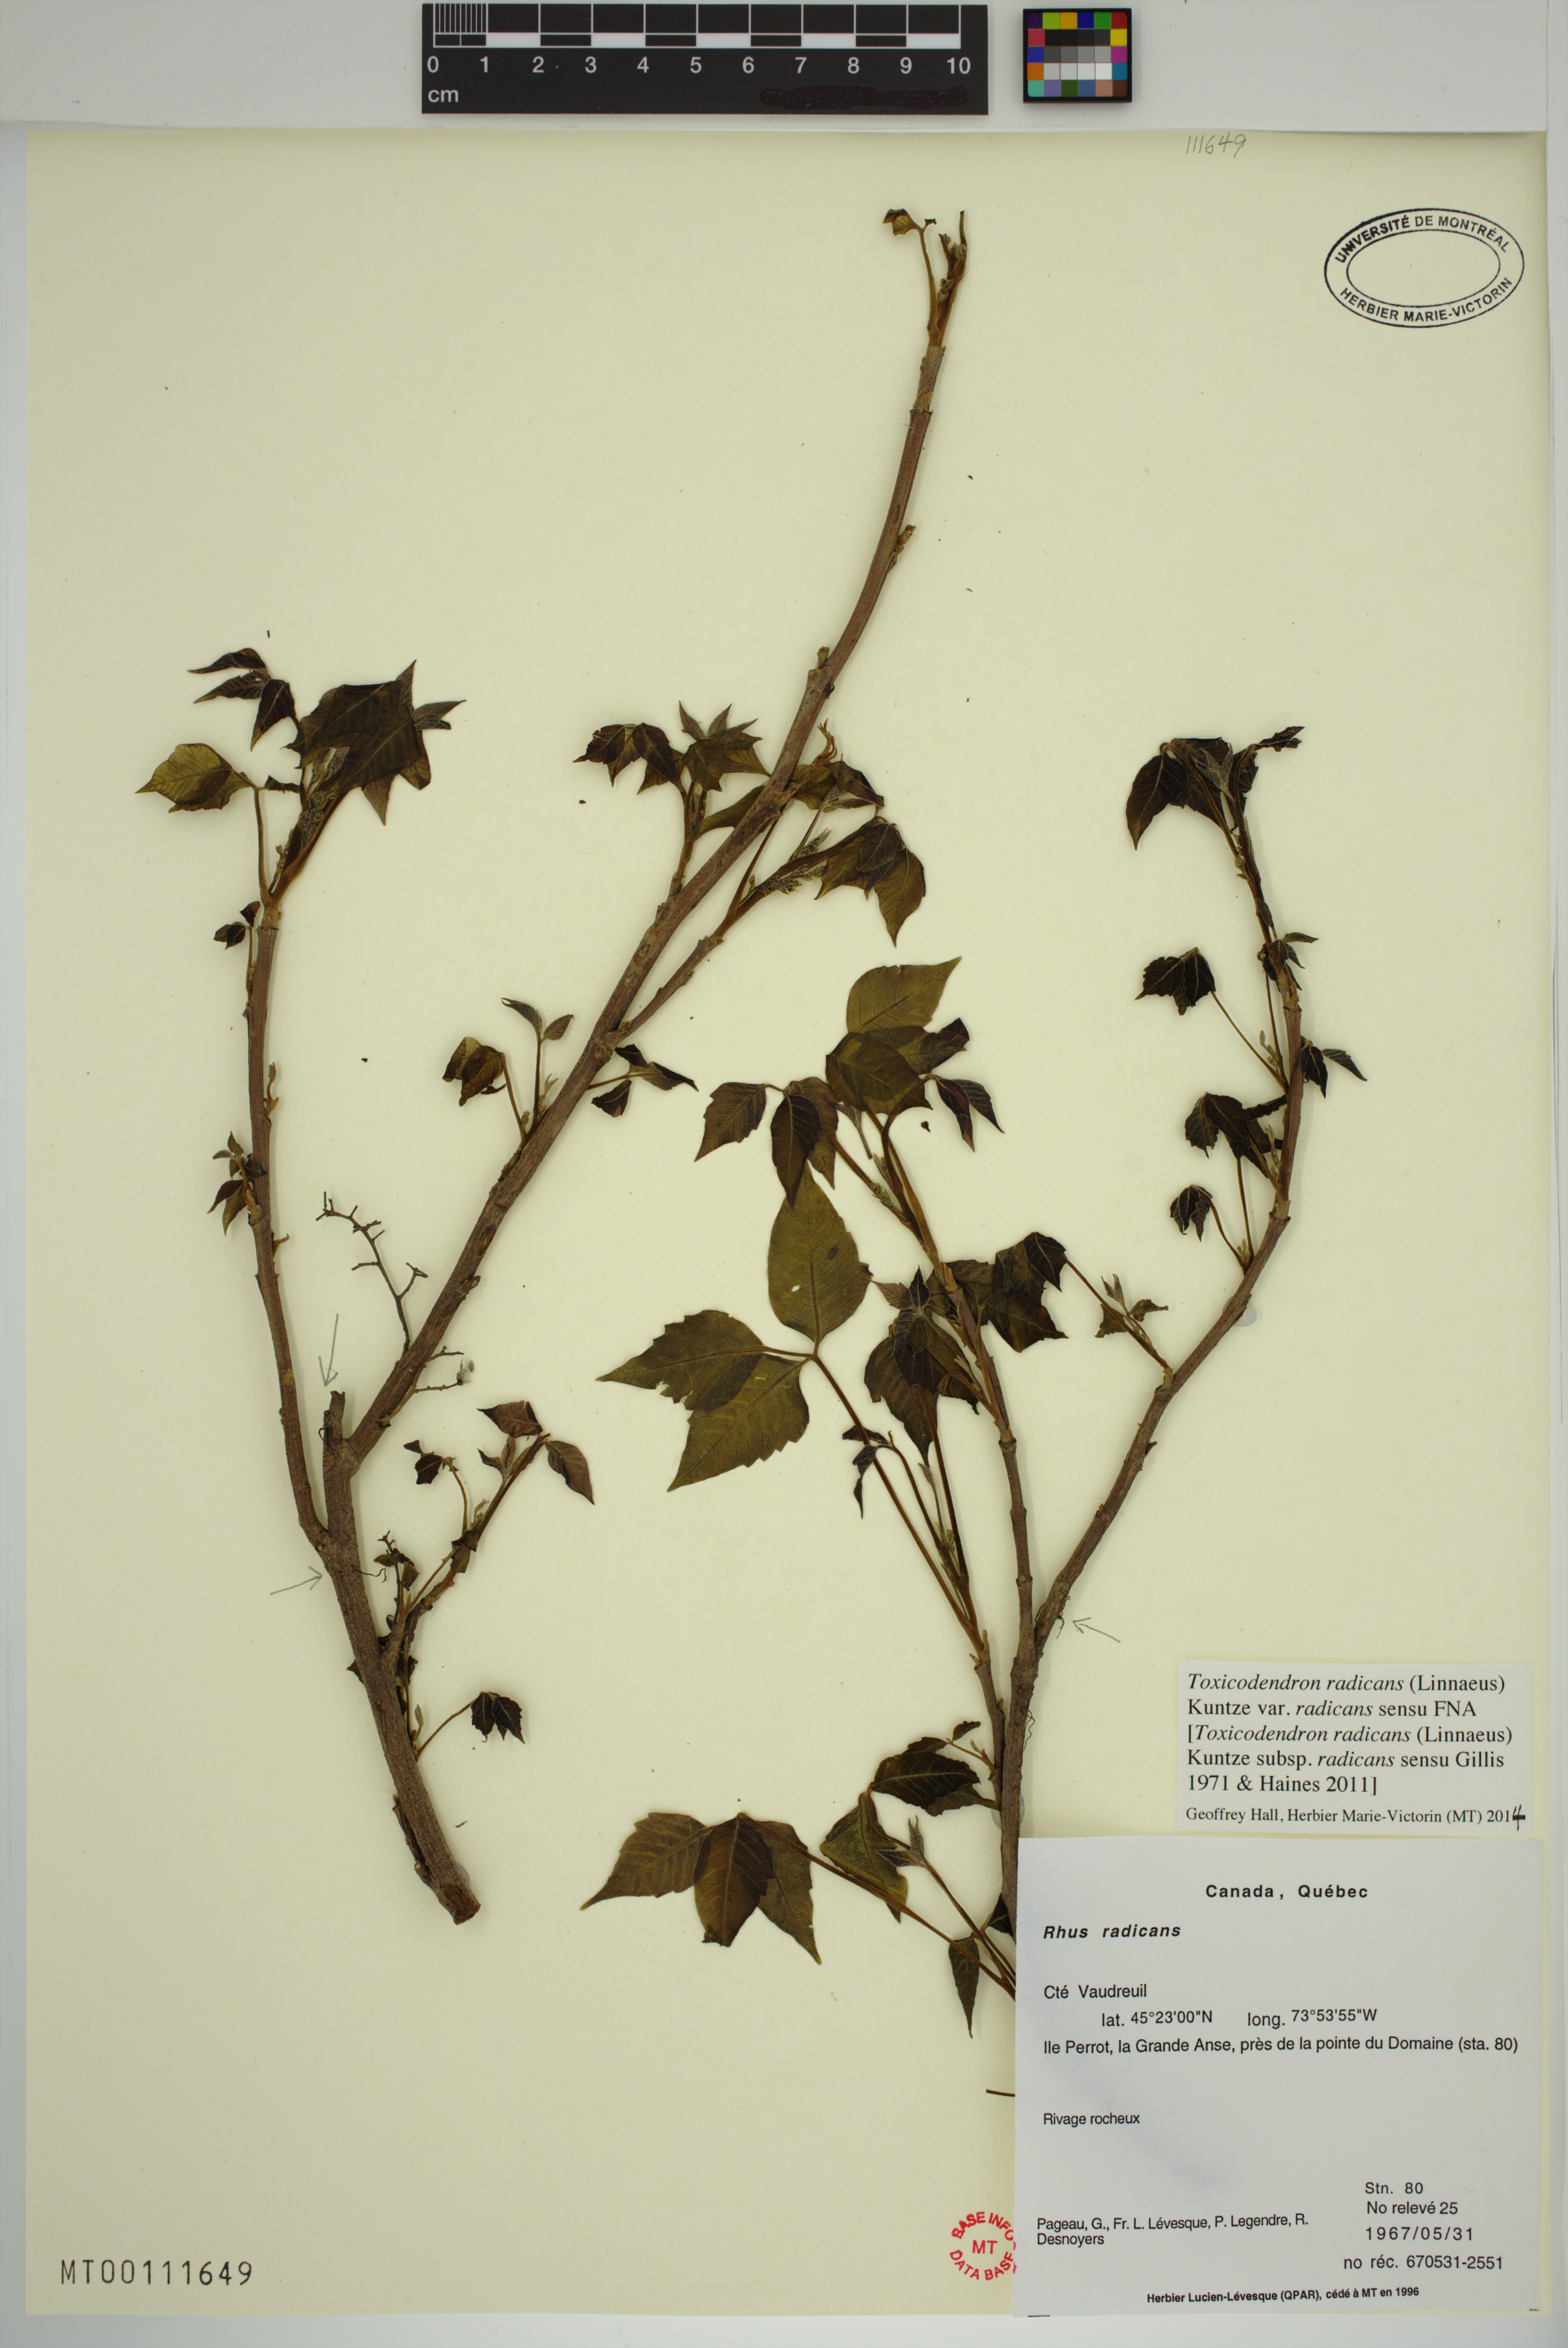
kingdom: Plantae
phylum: Tracheophyta
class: Magnoliopsida
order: Sapindales
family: Anacardiaceae
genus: Toxicodendron
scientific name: Toxicodendron radicans
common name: Poison ivy
